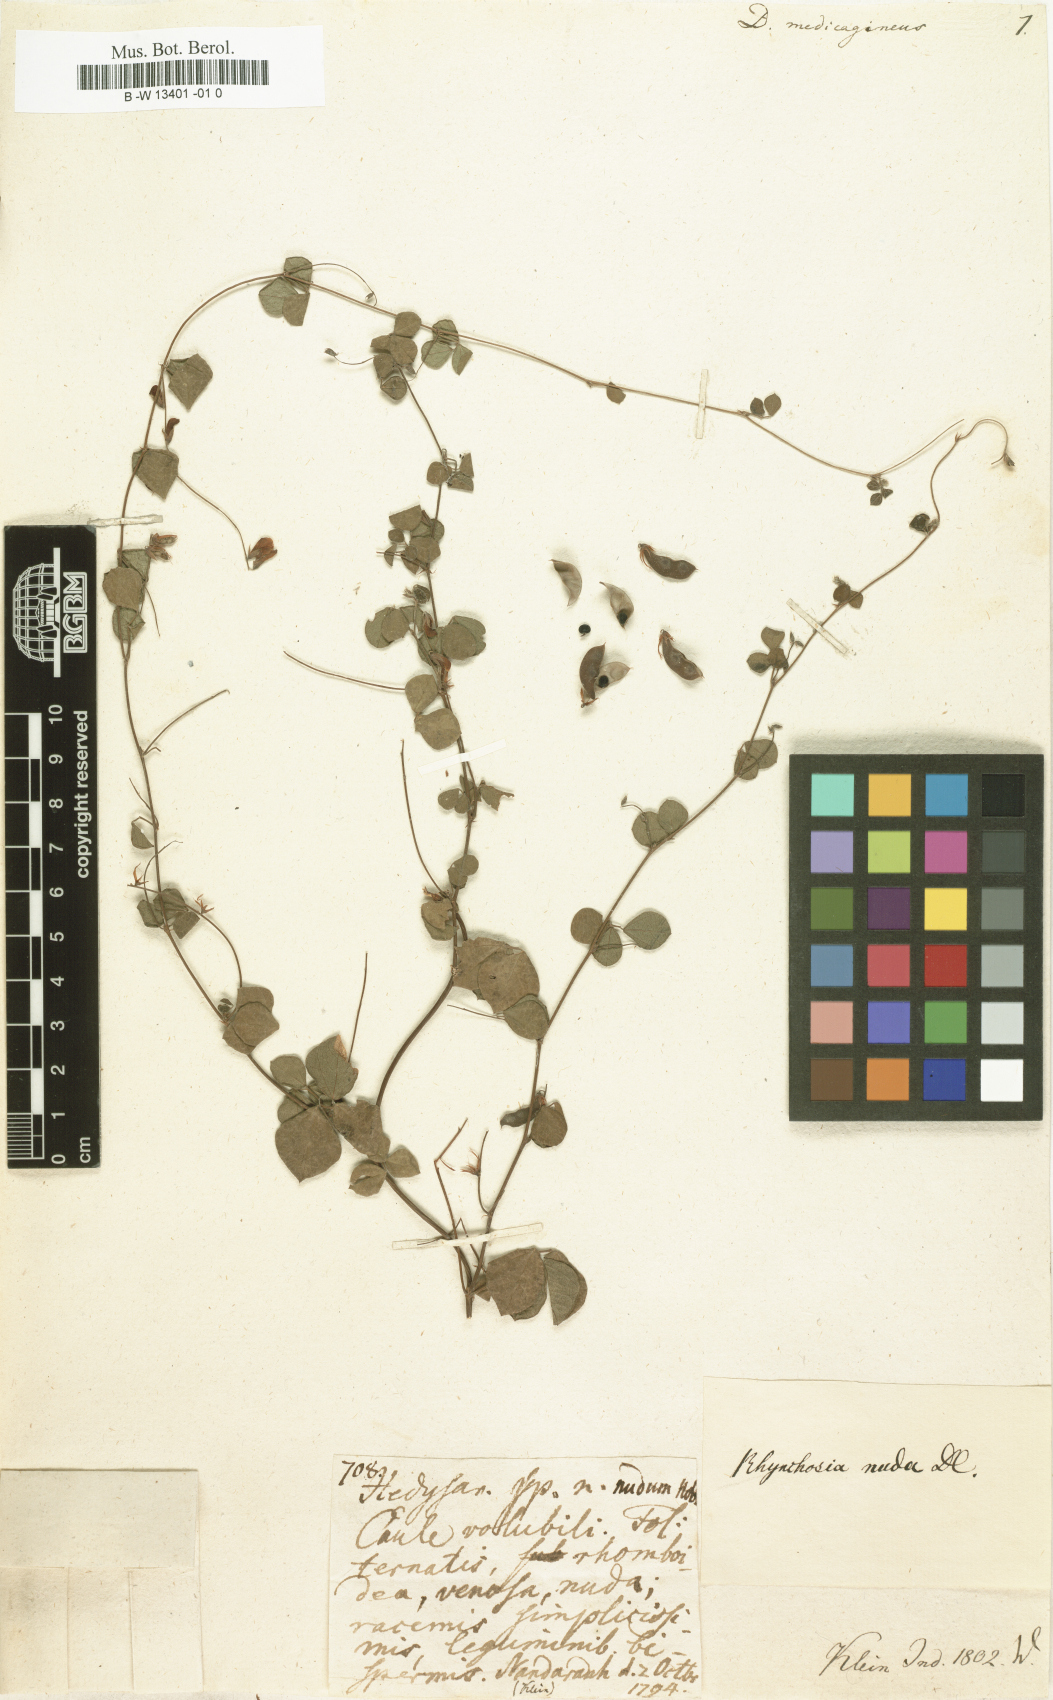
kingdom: Plantae
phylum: Tracheophyta
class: Magnoliopsida
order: Fabales
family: Fabaceae
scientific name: Fabaceae
